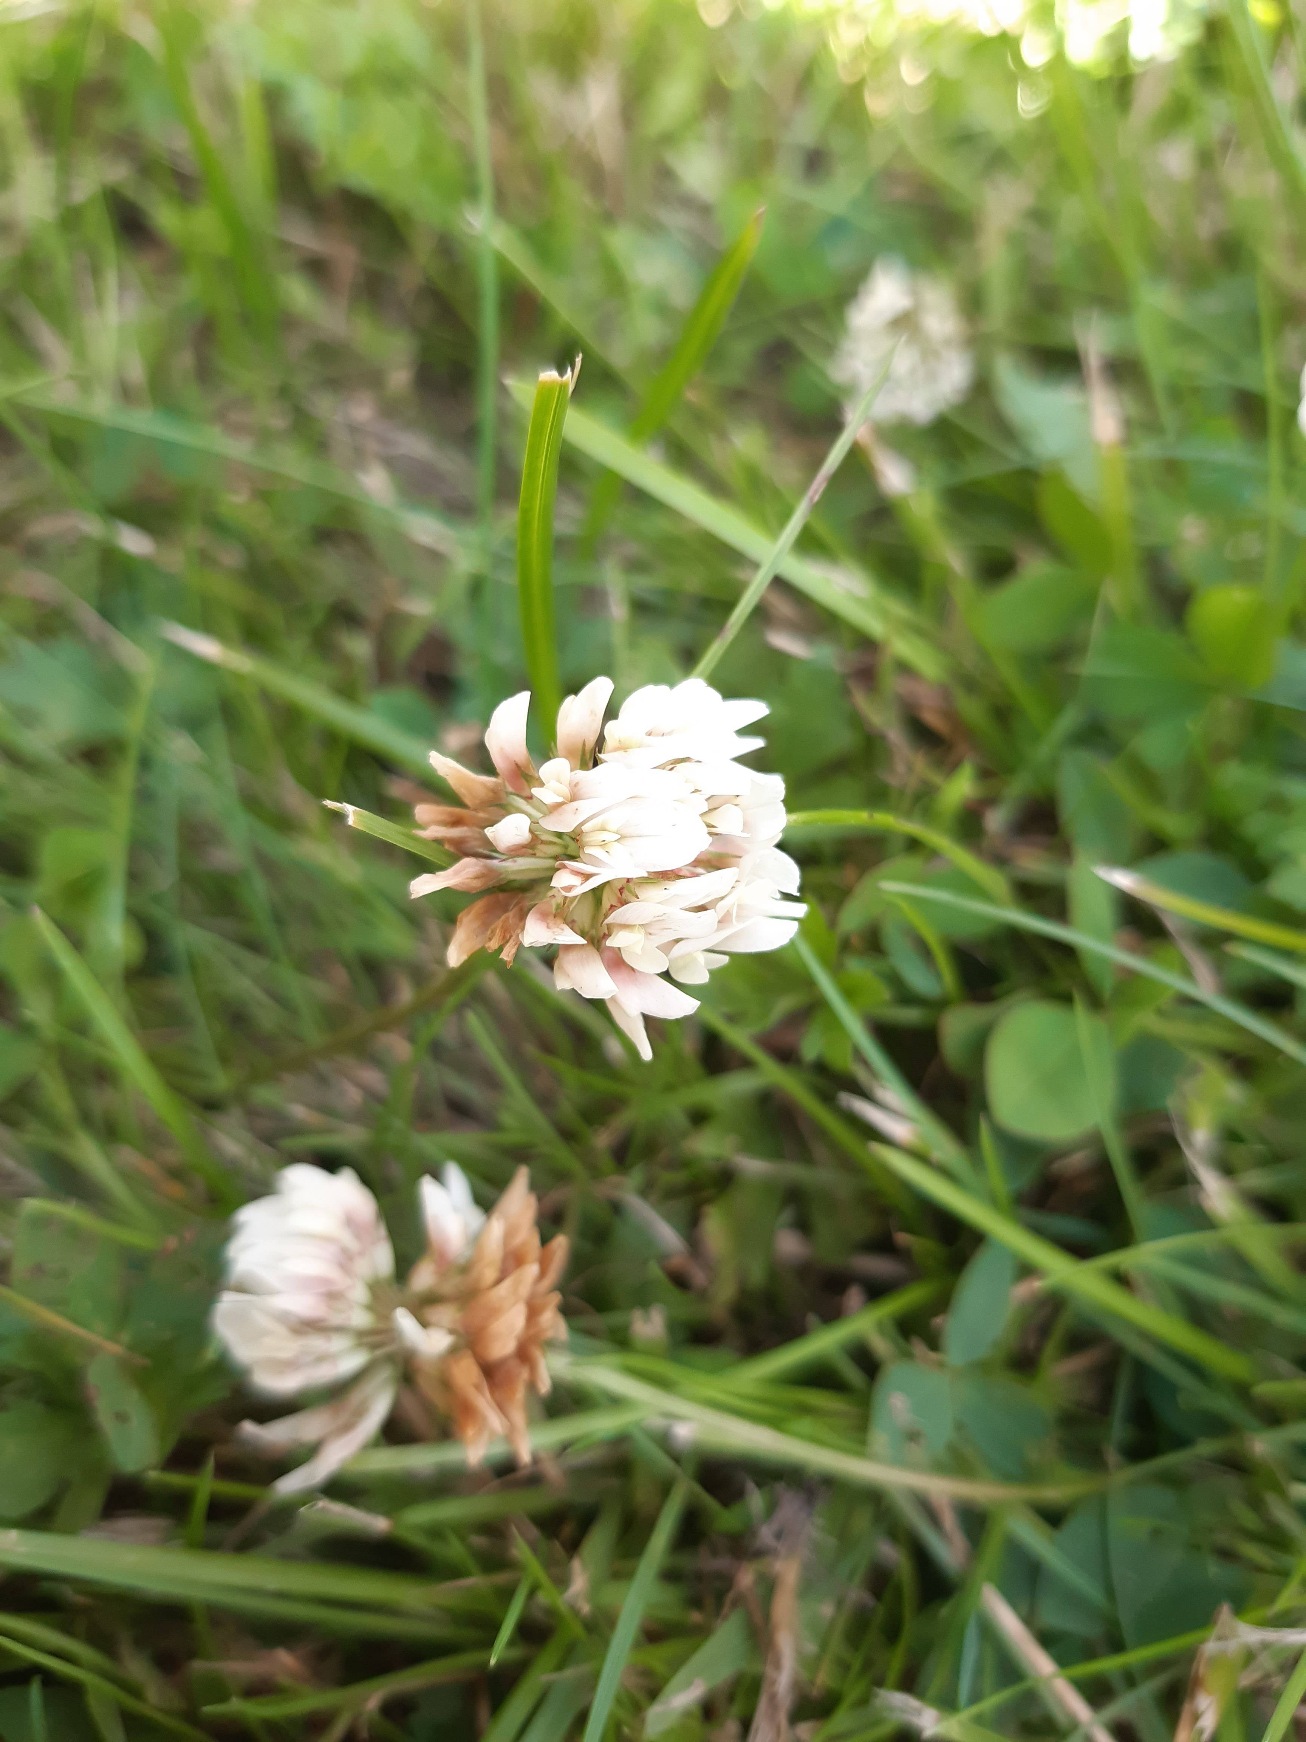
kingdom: Plantae
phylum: Tracheophyta
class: Magnoliopsida
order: Fabales
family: Fabaceae
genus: Trifolium
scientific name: Trifolium repens
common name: Hvid-kløver
